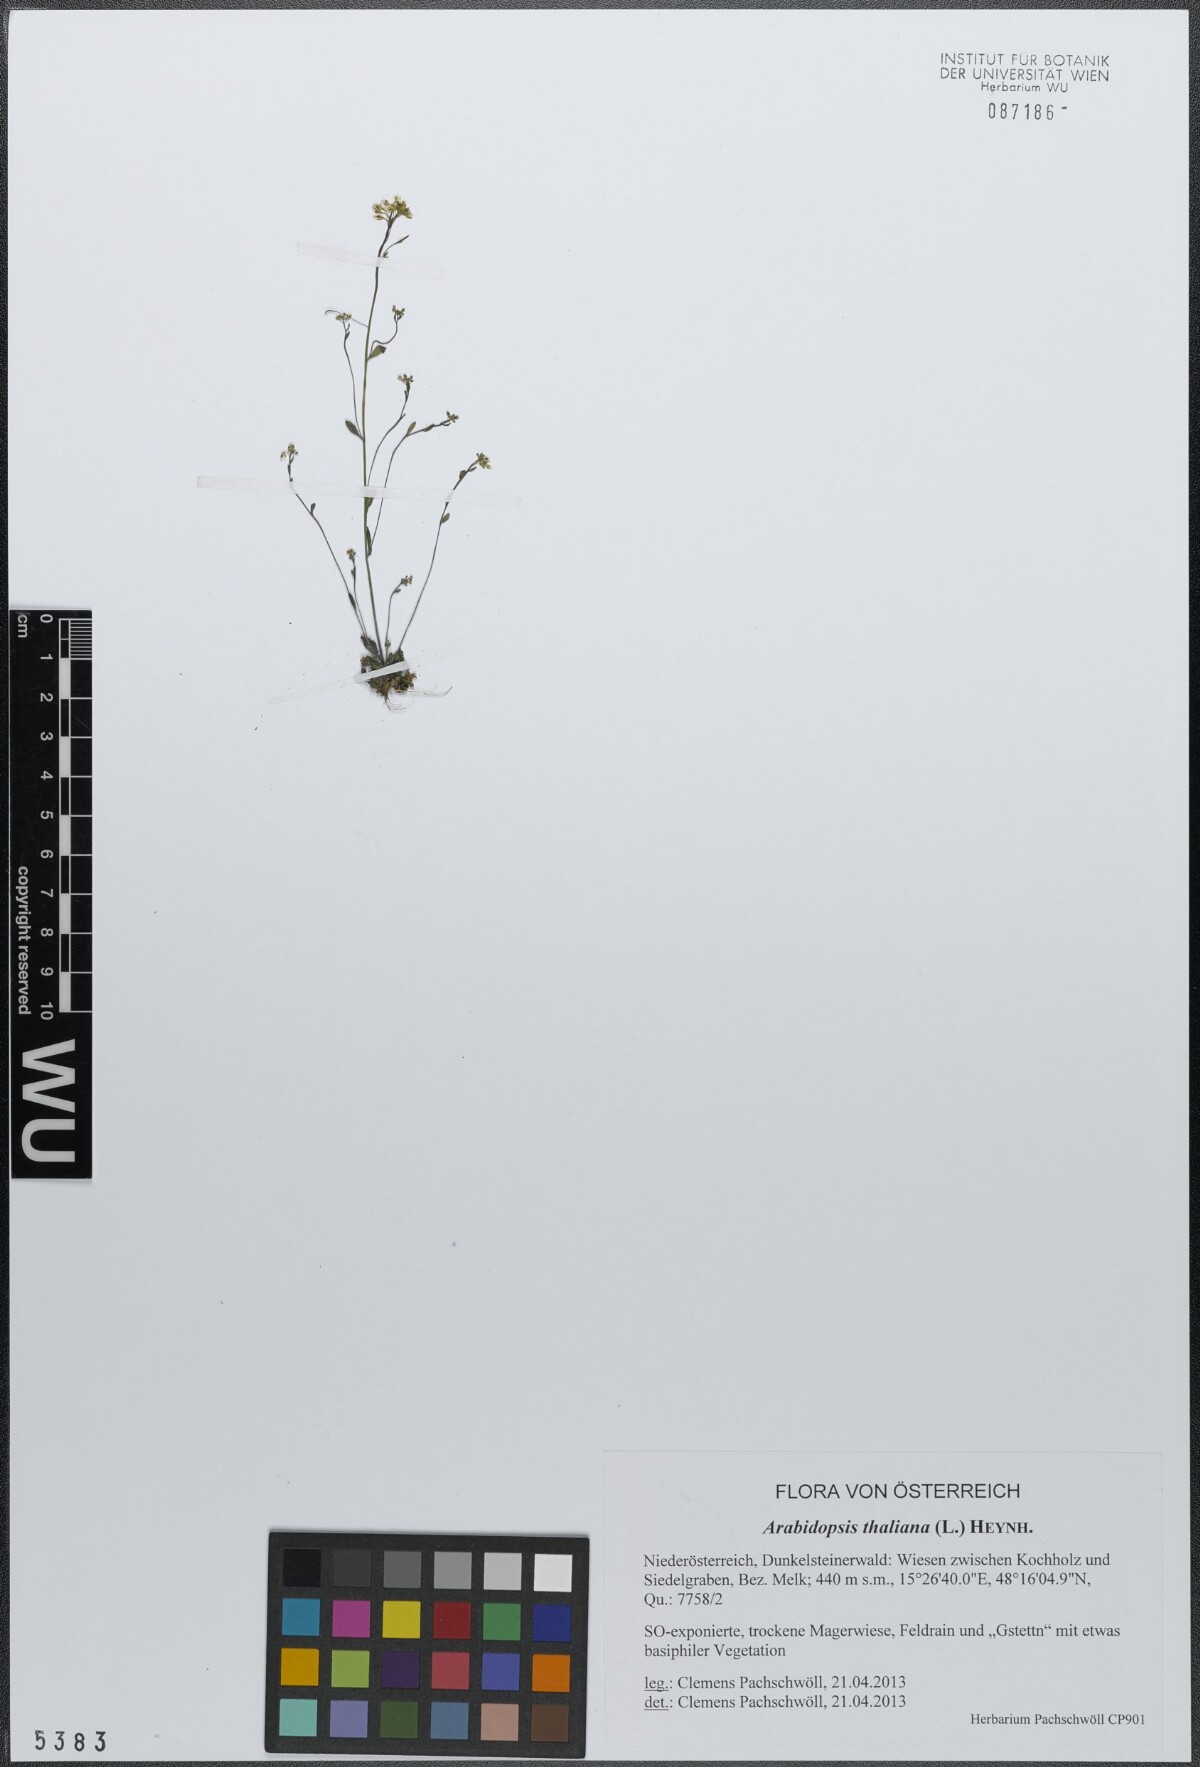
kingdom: Plantae
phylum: Tracheophyta
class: Magnoliopsida
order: Brassicales
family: Brassicaceae
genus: Arabidopsis
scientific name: Arabidopsis thaliana
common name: Thale cress
